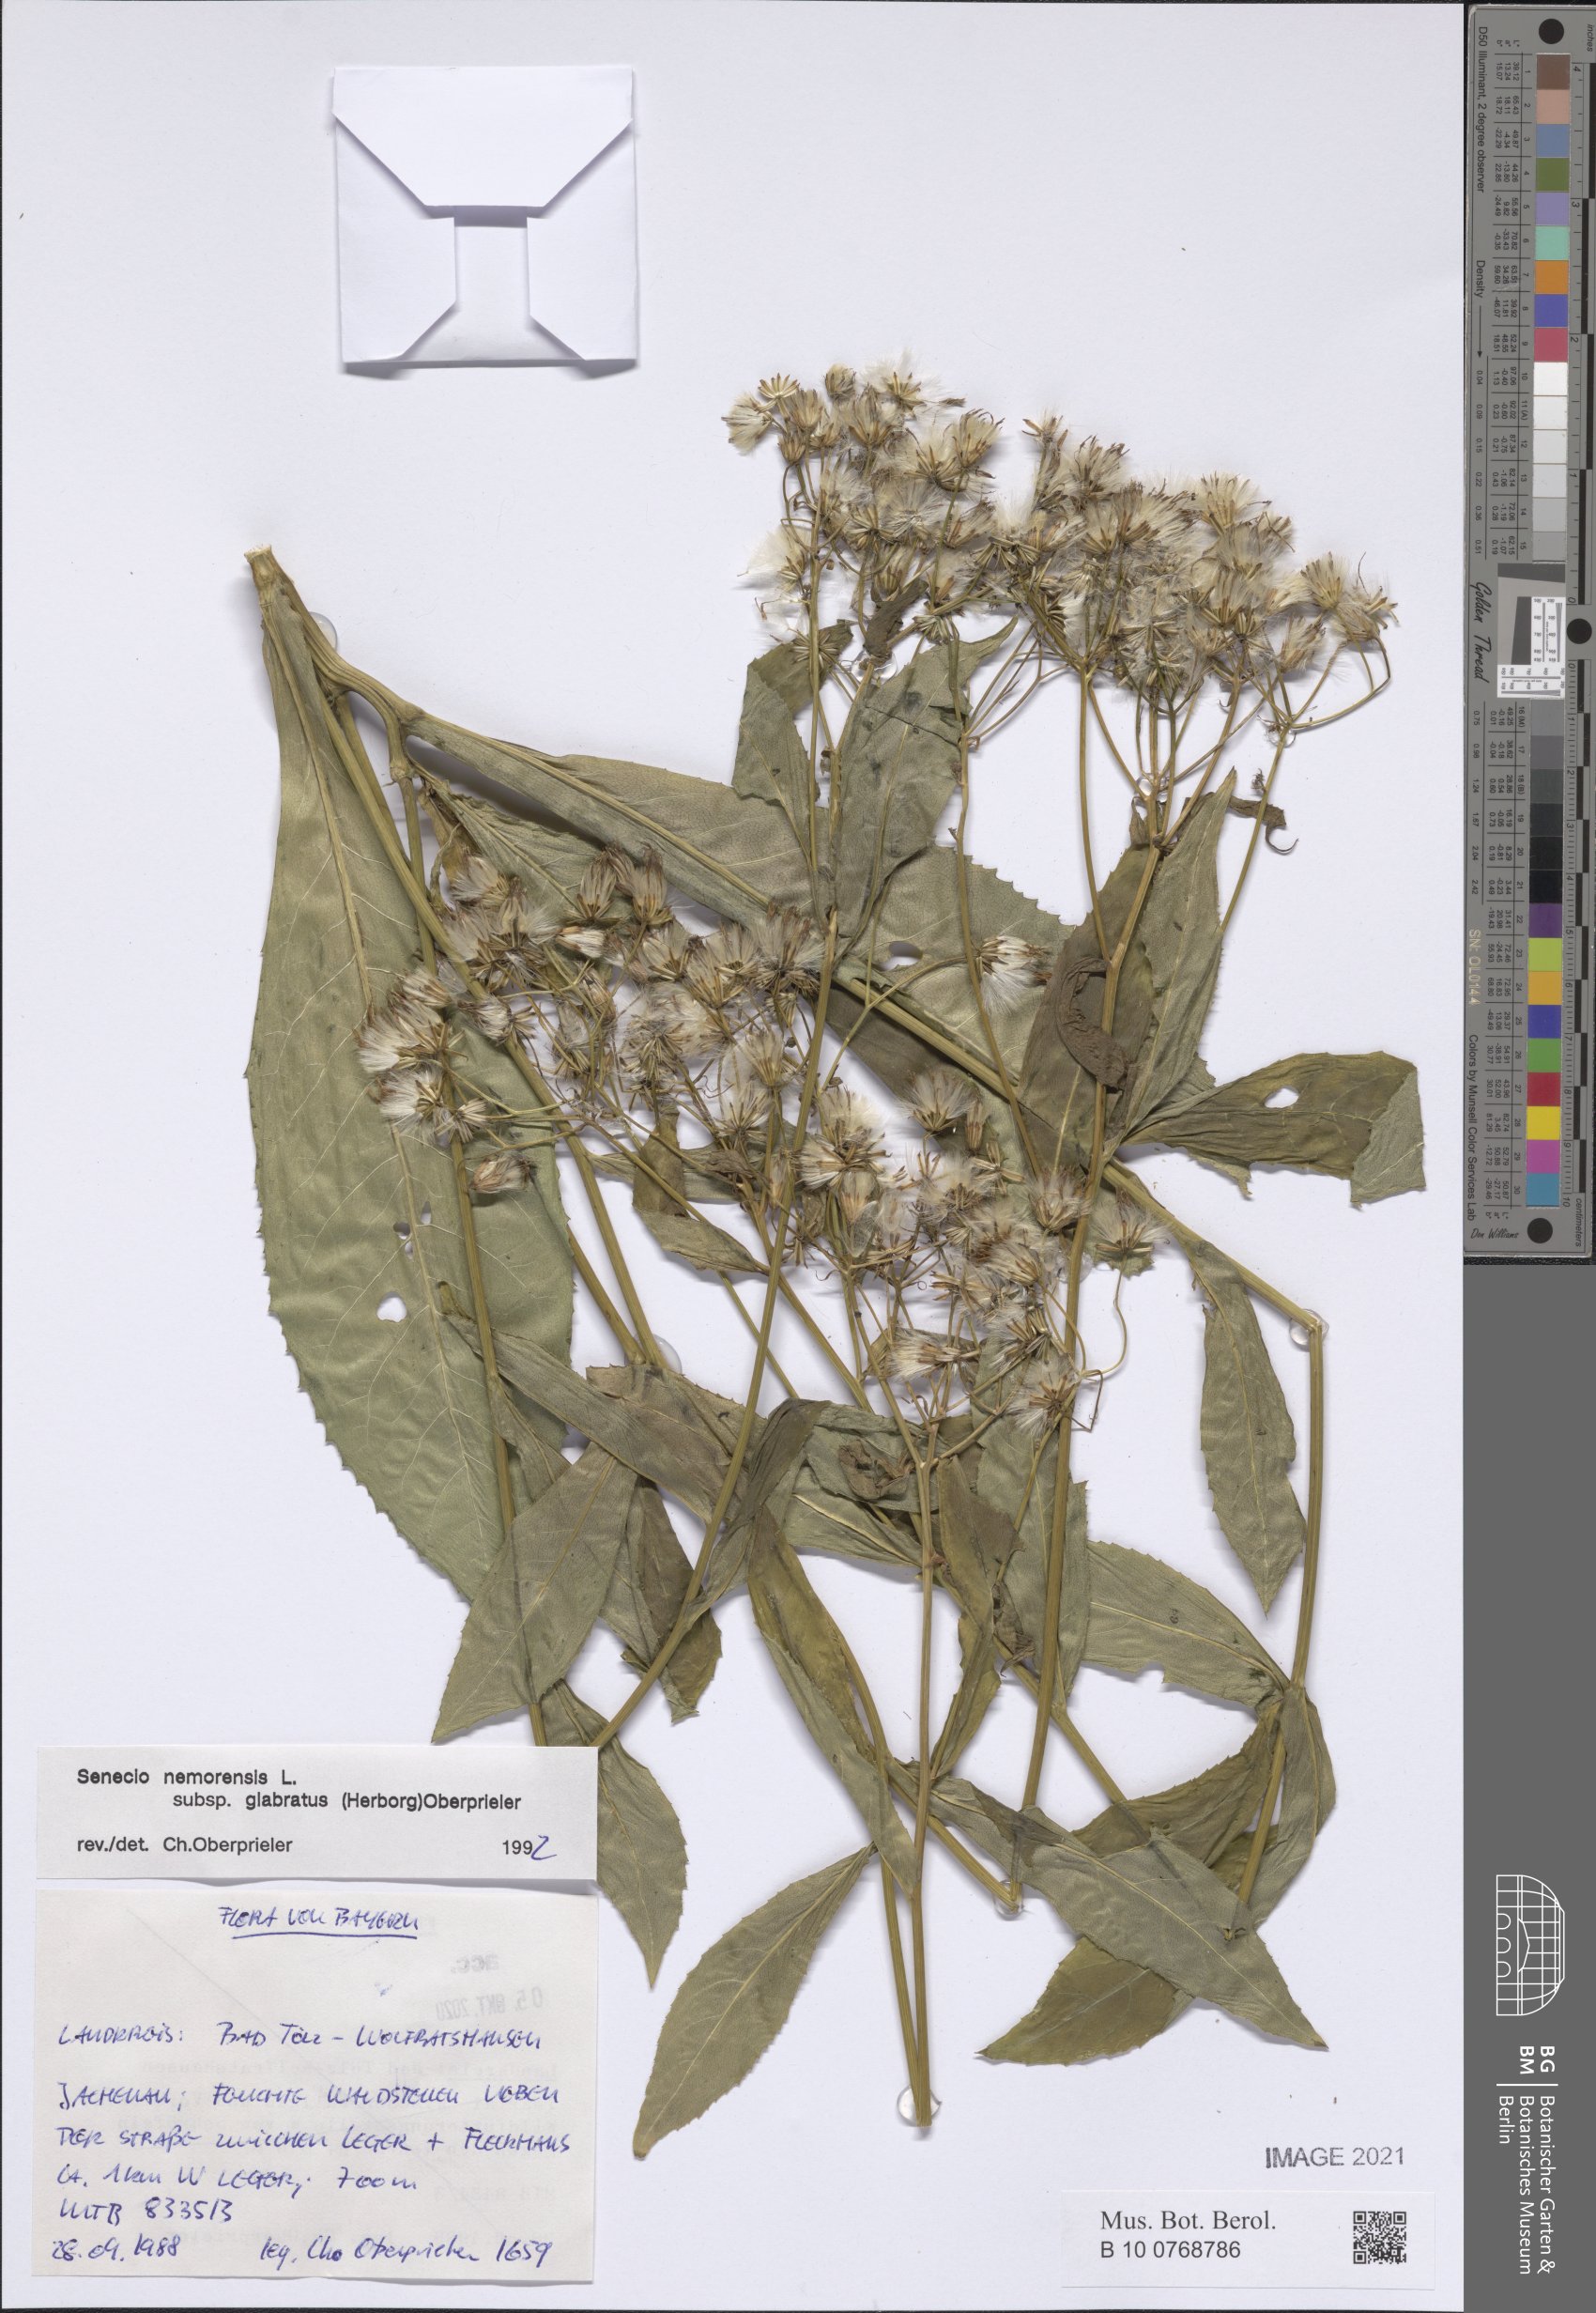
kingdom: Plantae
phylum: Tracheophyta
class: Magnoliopsida
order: Asterales
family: Asteraceae
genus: Senecio
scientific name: Senecio germanicus
